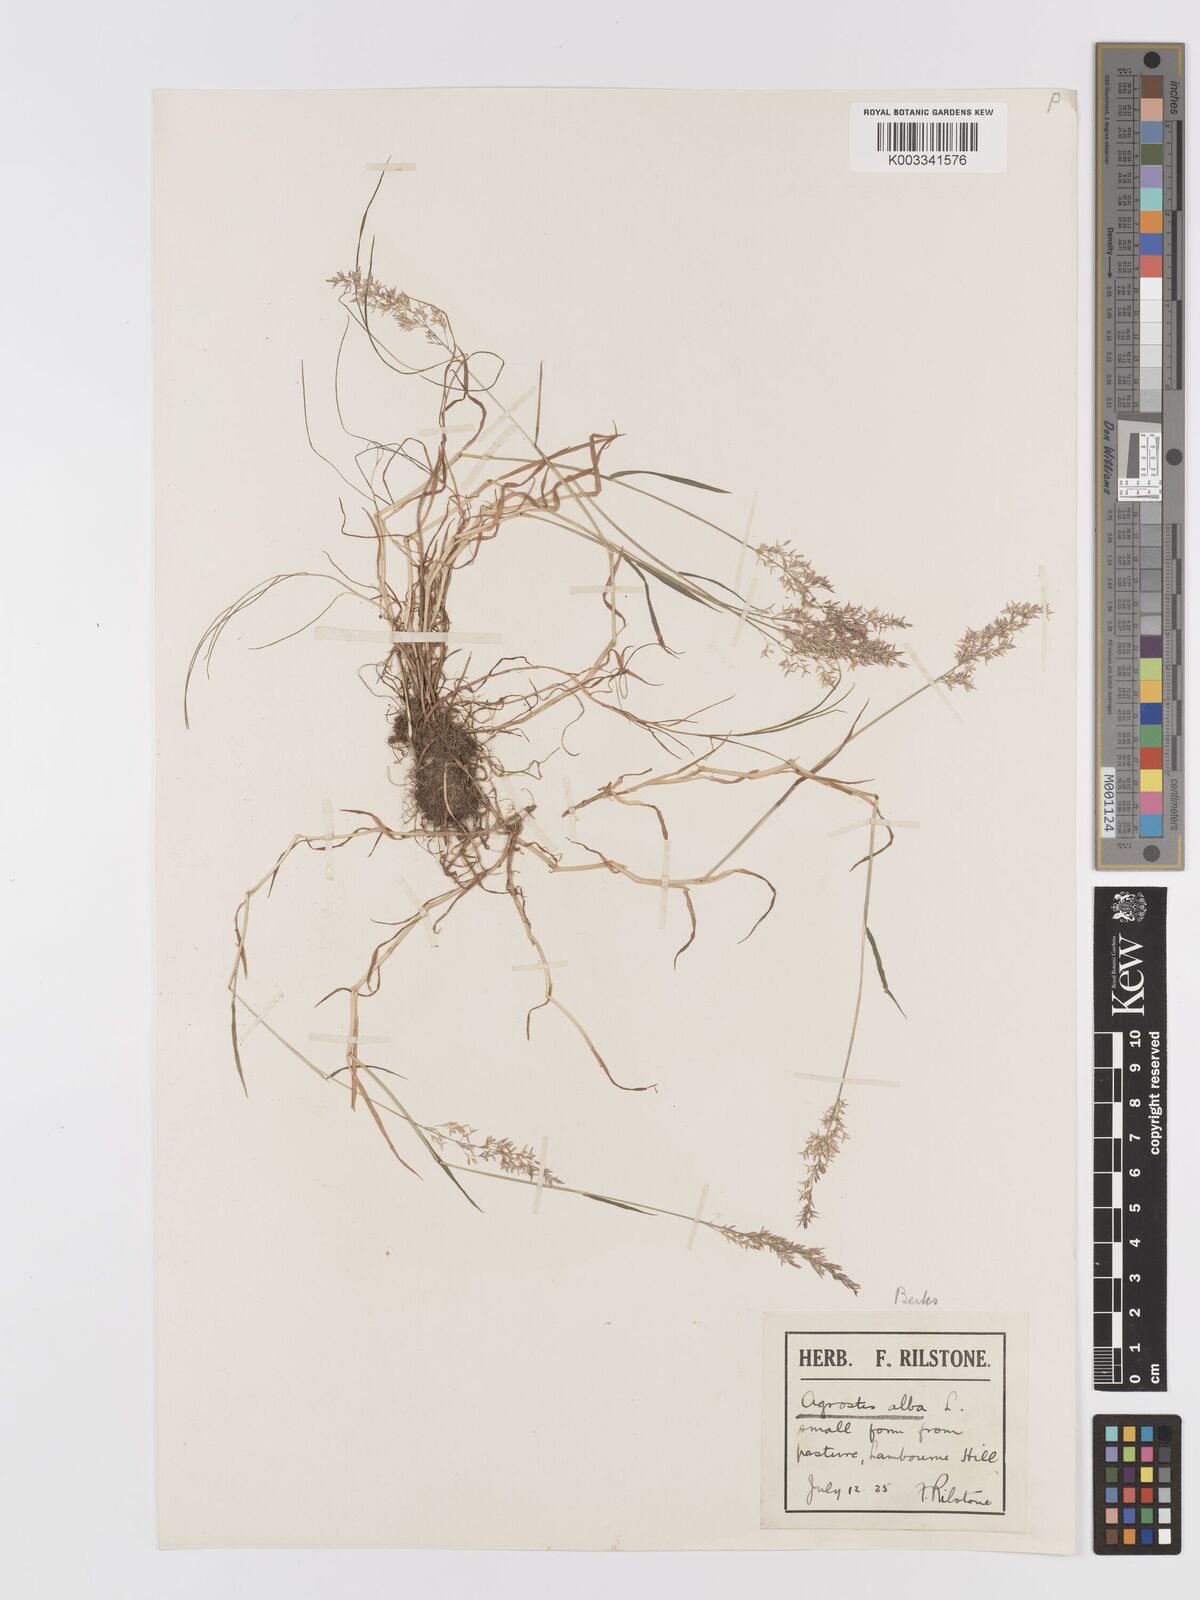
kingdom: Plantae
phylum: Tracheophyta
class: Liliopsida
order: Poales
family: Poaceae
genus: Agrostis
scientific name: Agrostis stolonifera
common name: Creeping bentgrass
